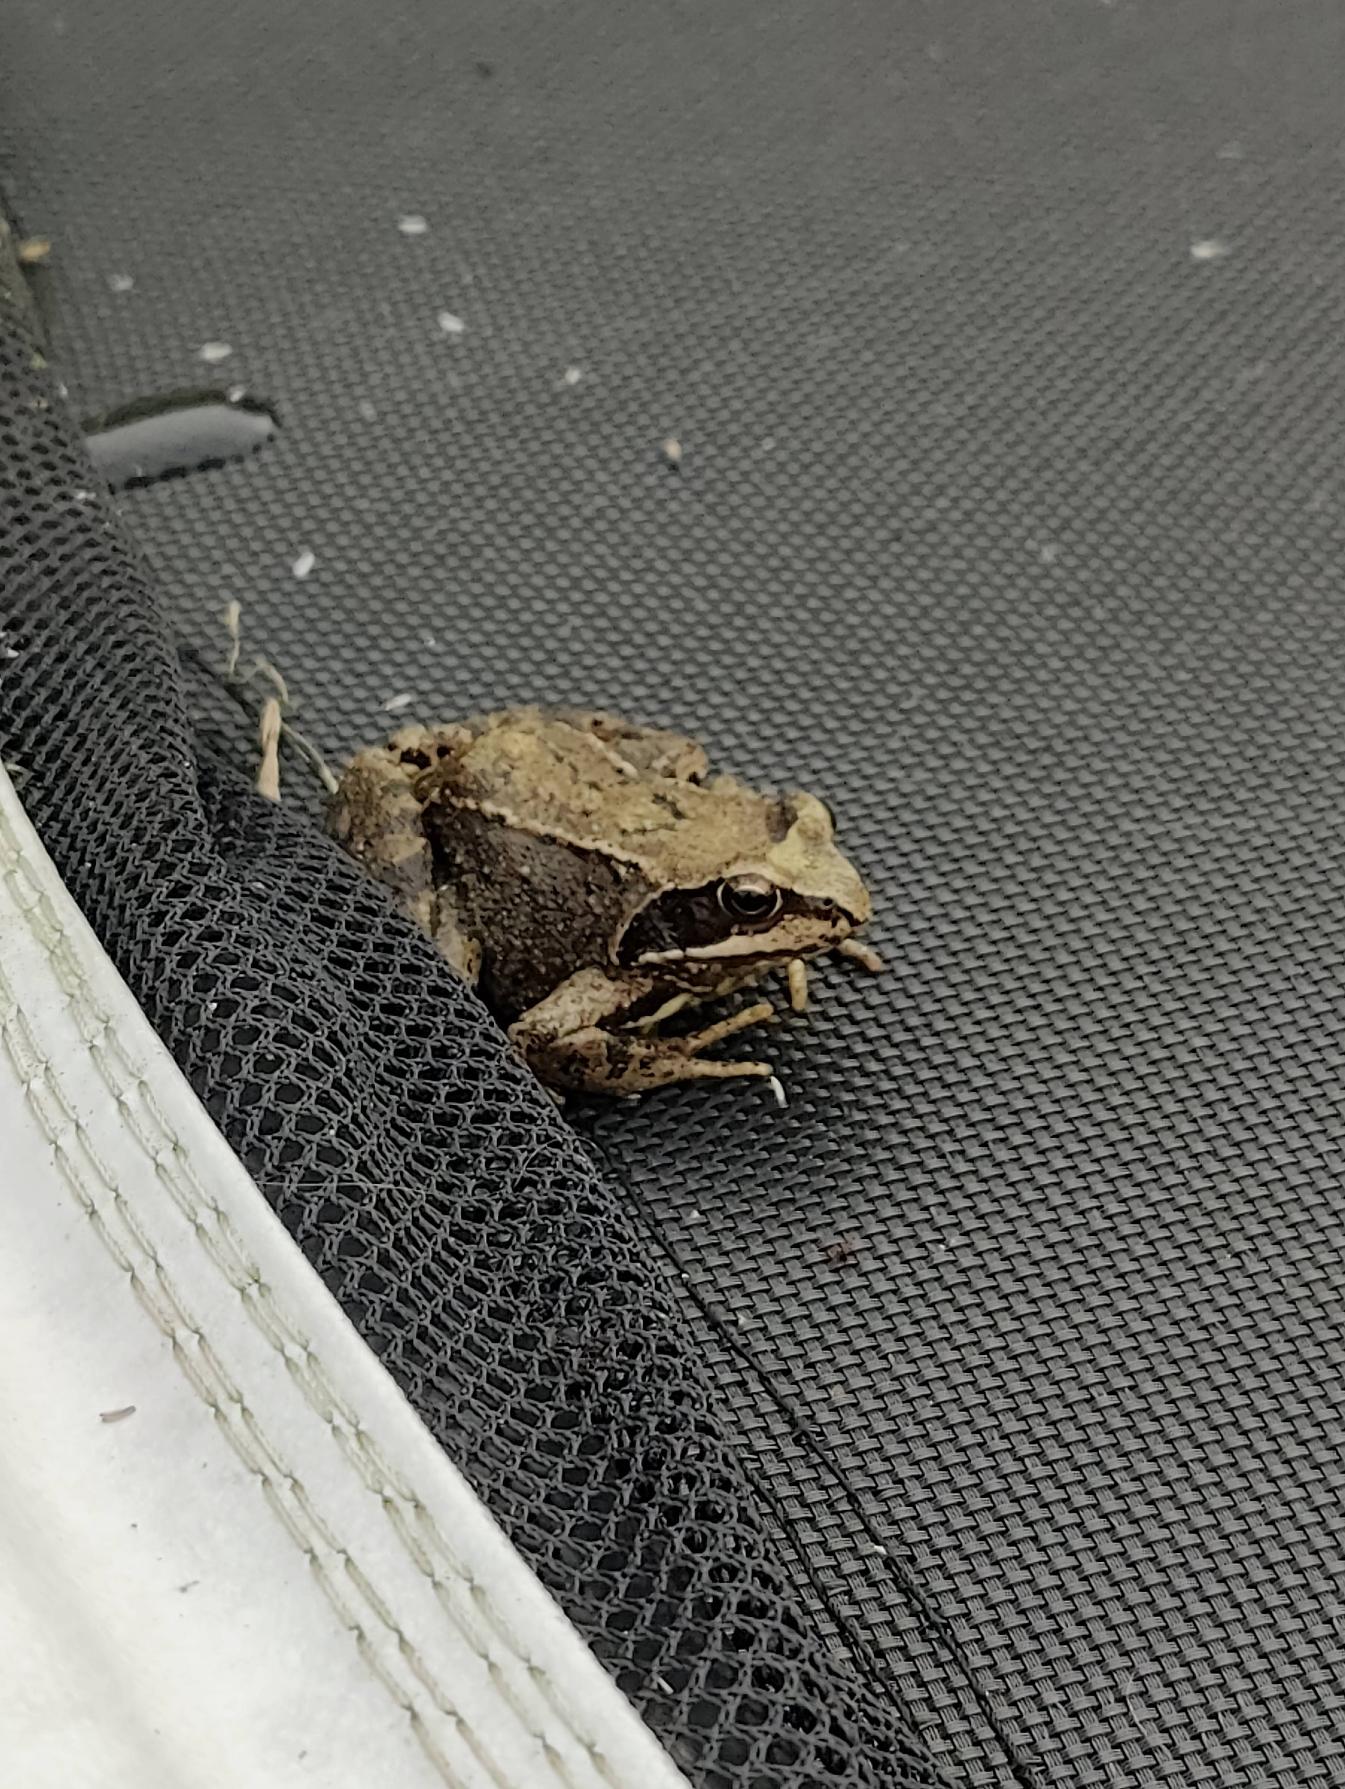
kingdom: Animalia
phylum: Chordata
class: Amphibia
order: Anura
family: Ranidae
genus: Rana
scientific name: Rana temporaria
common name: Butsnudet frø
